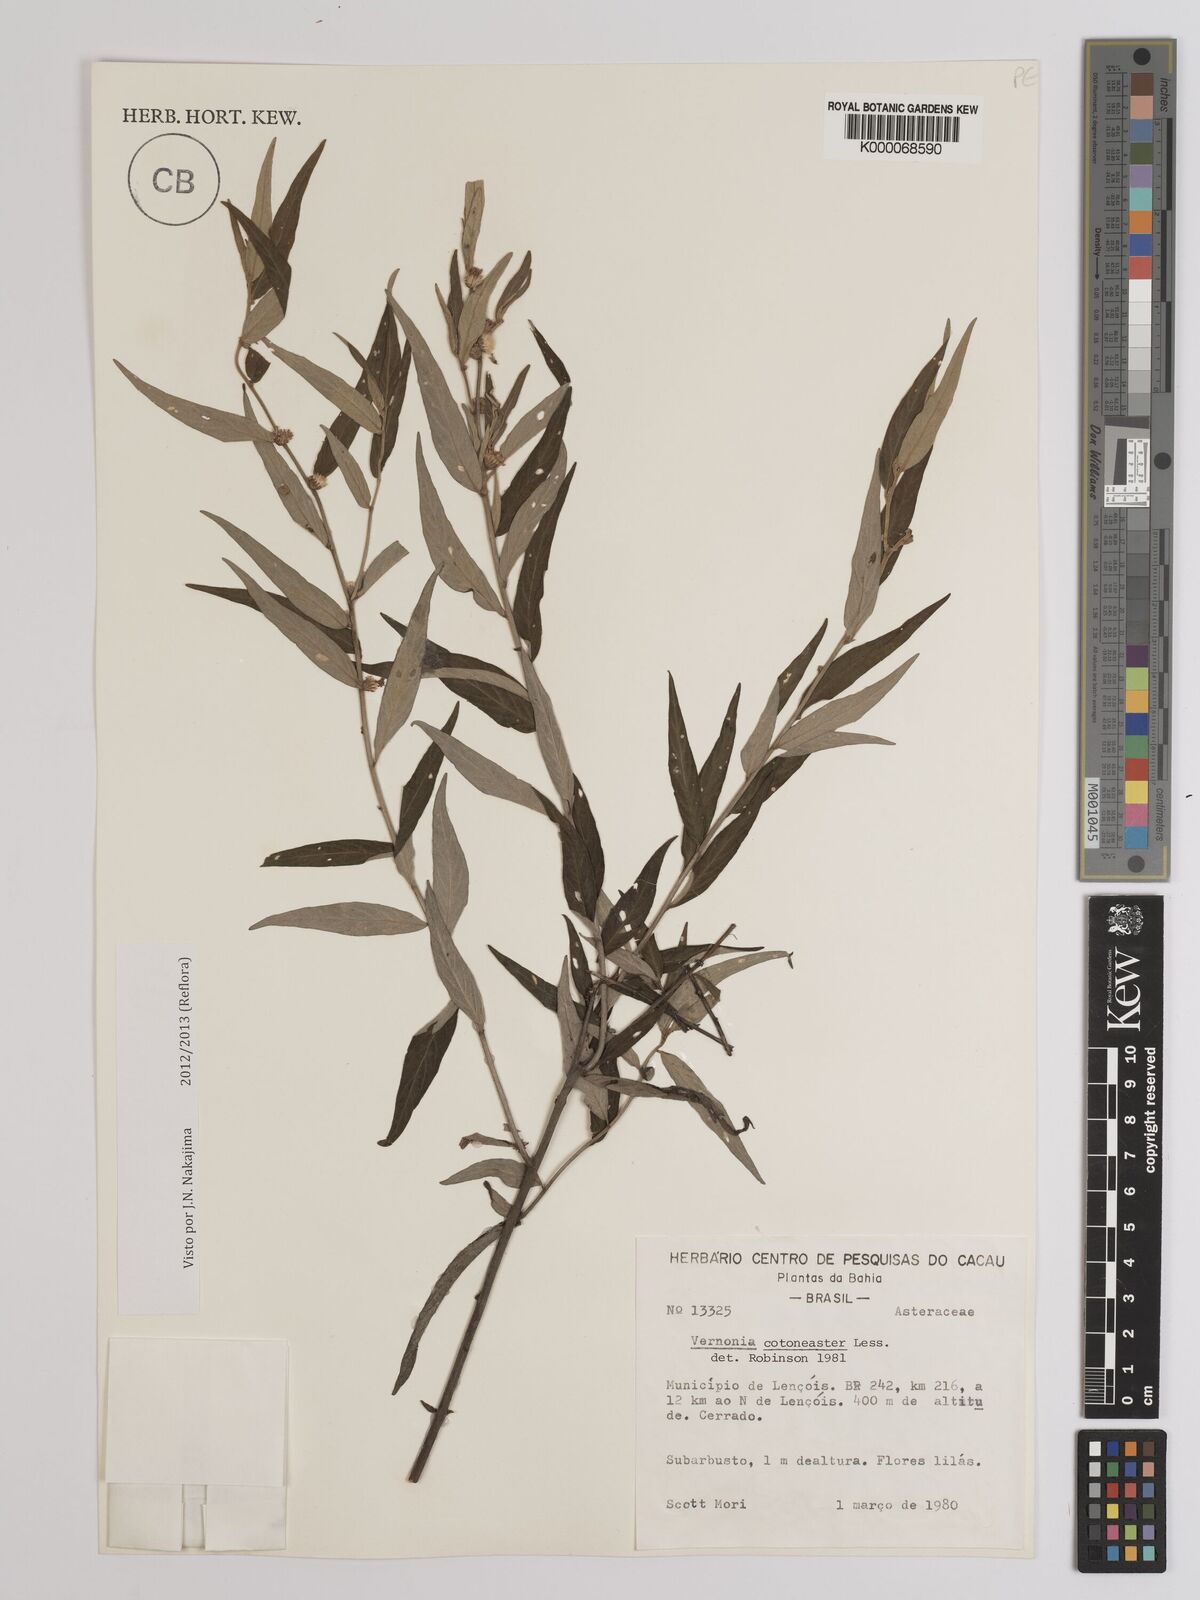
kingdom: Plantae
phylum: Tracheophyta
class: Magnoliopsida
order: Asterales
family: Asteraceae
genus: Lepidaploa
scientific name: Lepidaploa cotoneaster
